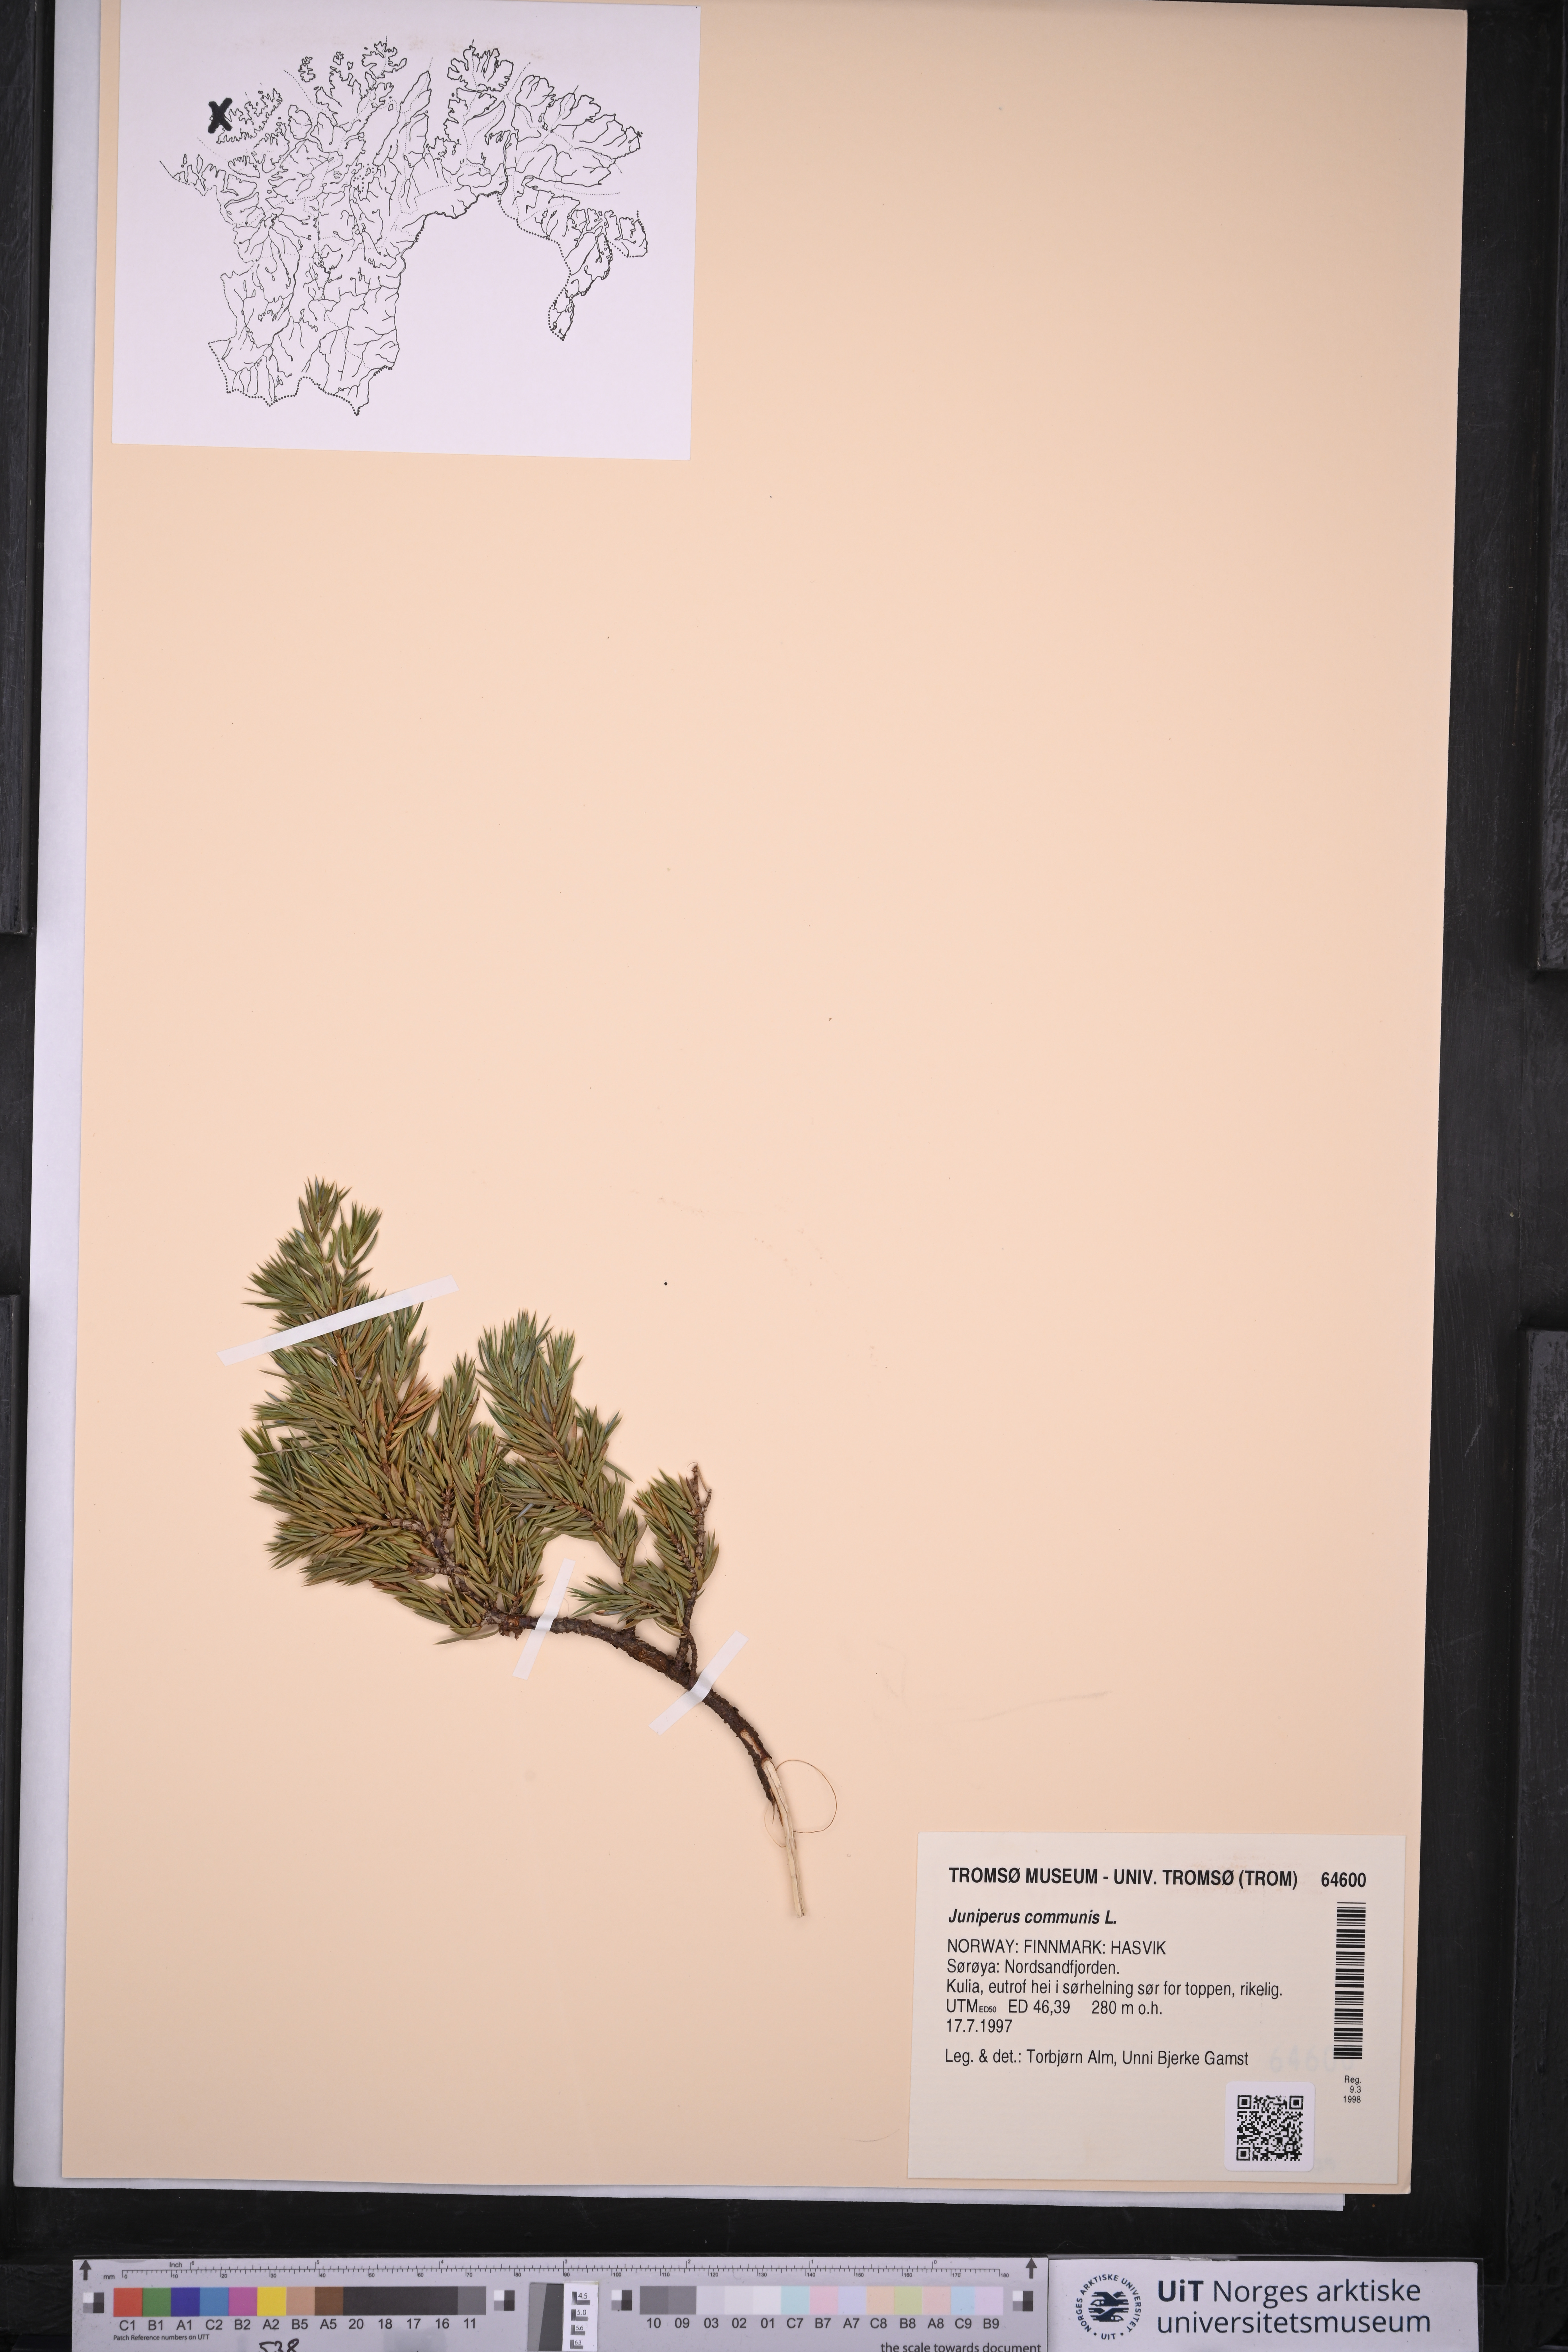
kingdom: Plantae
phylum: Tracheophyta
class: Pinopsida
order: Pinales
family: Cupressaceae
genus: Juniperus
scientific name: Juniperus communis
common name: Common juniper
